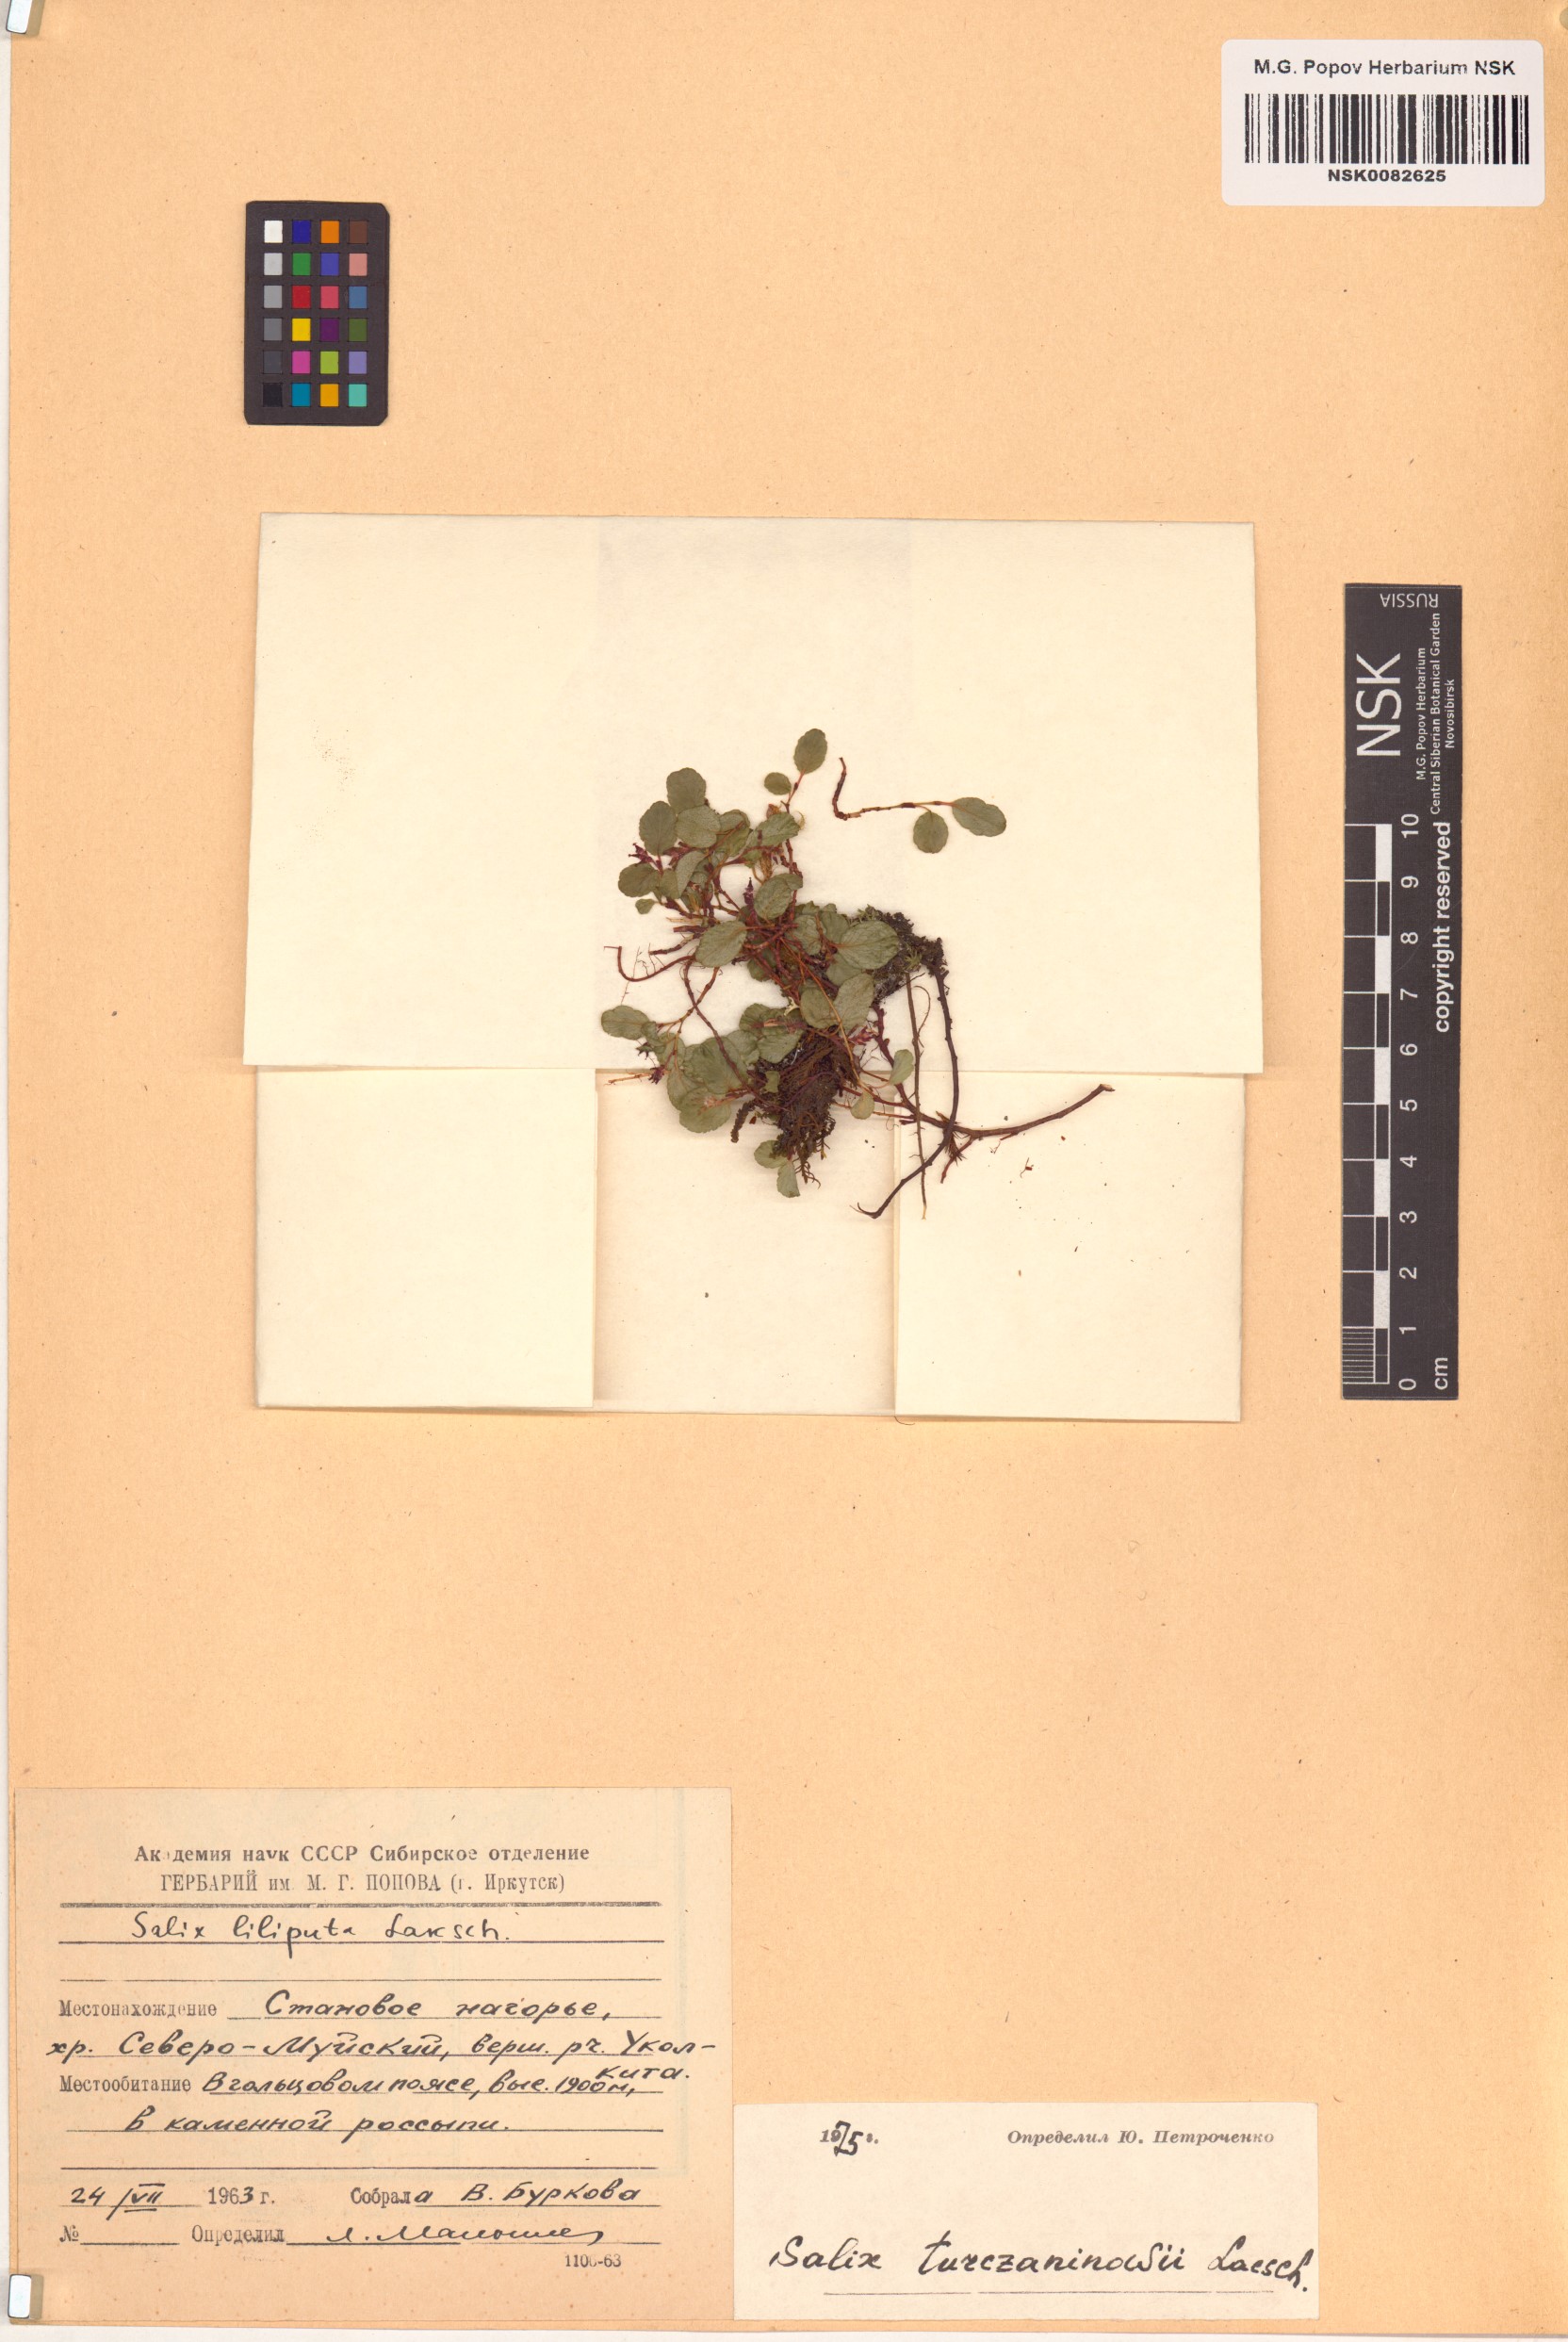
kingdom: Plantae
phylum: Tracheophyta
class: Magnoliopsida
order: Malpighiales
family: Salicaceae
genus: Salix
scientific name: Salix turczaninowii
